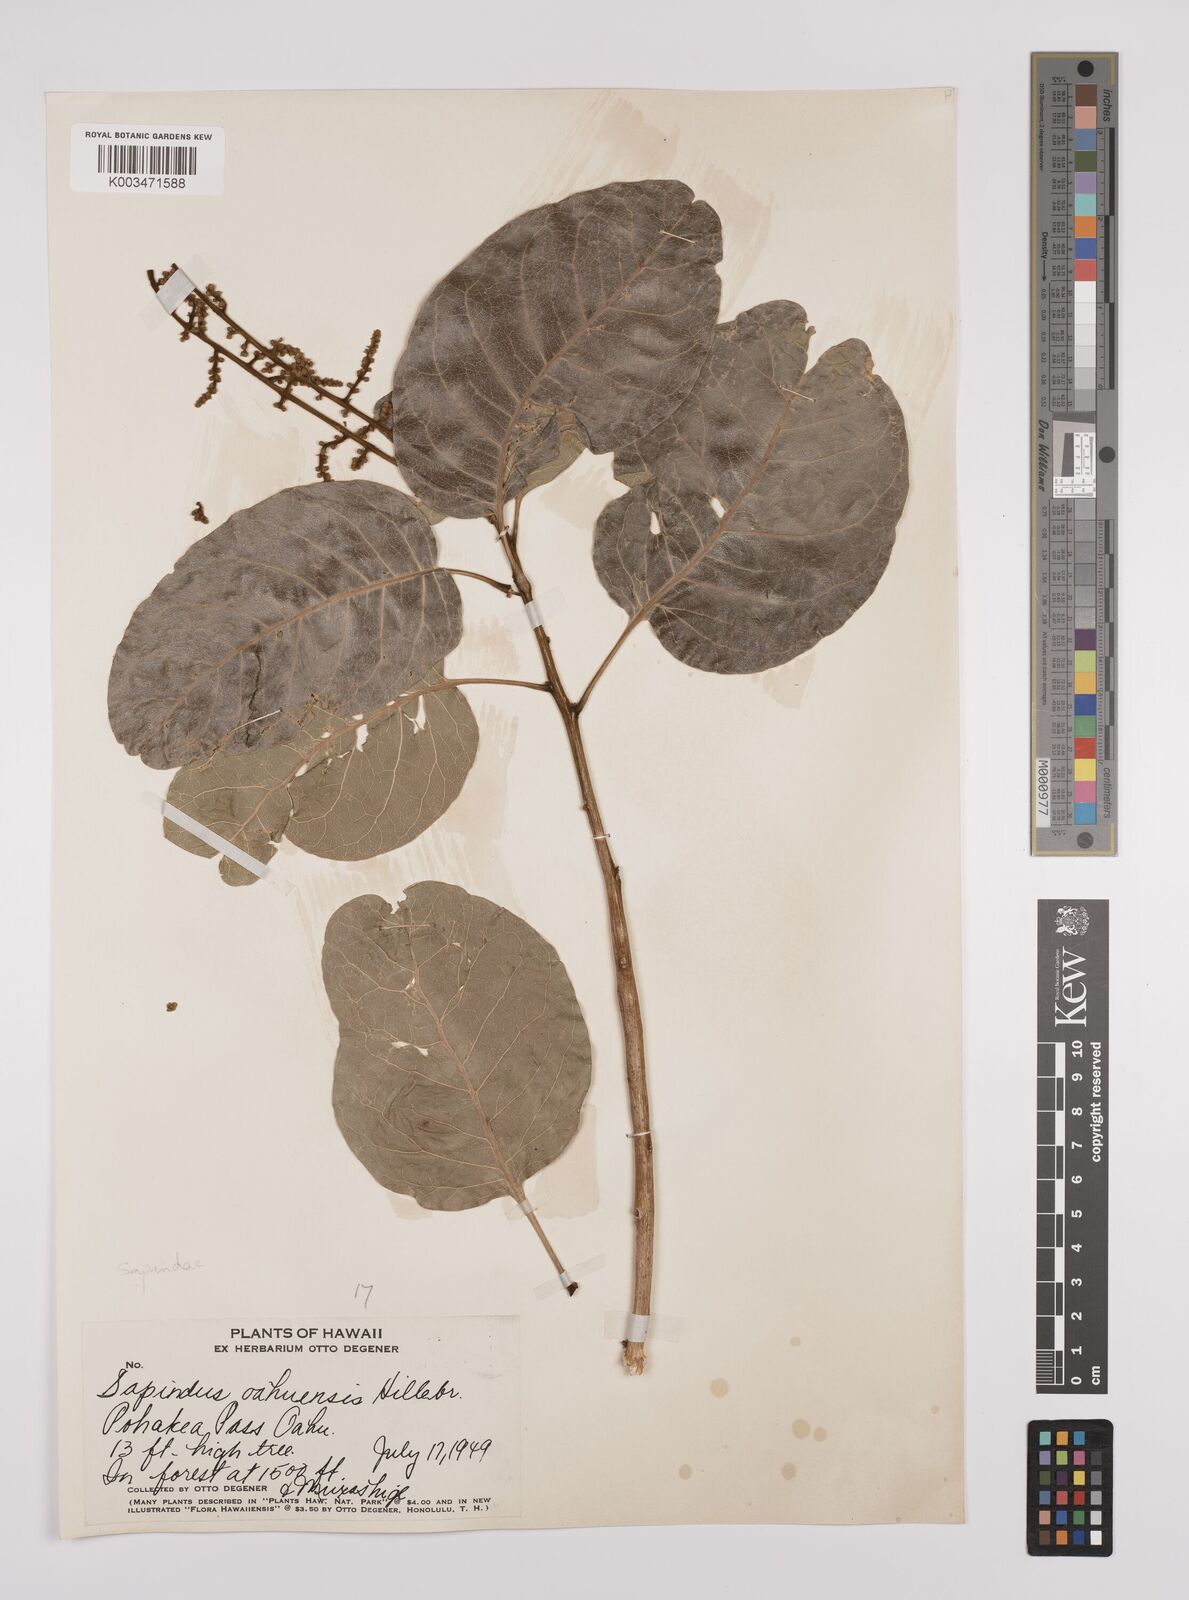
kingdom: Plantae
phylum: Tracheophyta
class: Magnoliopsida
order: Sapindales
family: Sapindaceae
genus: Sapindus
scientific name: Sapindus oahuensis
